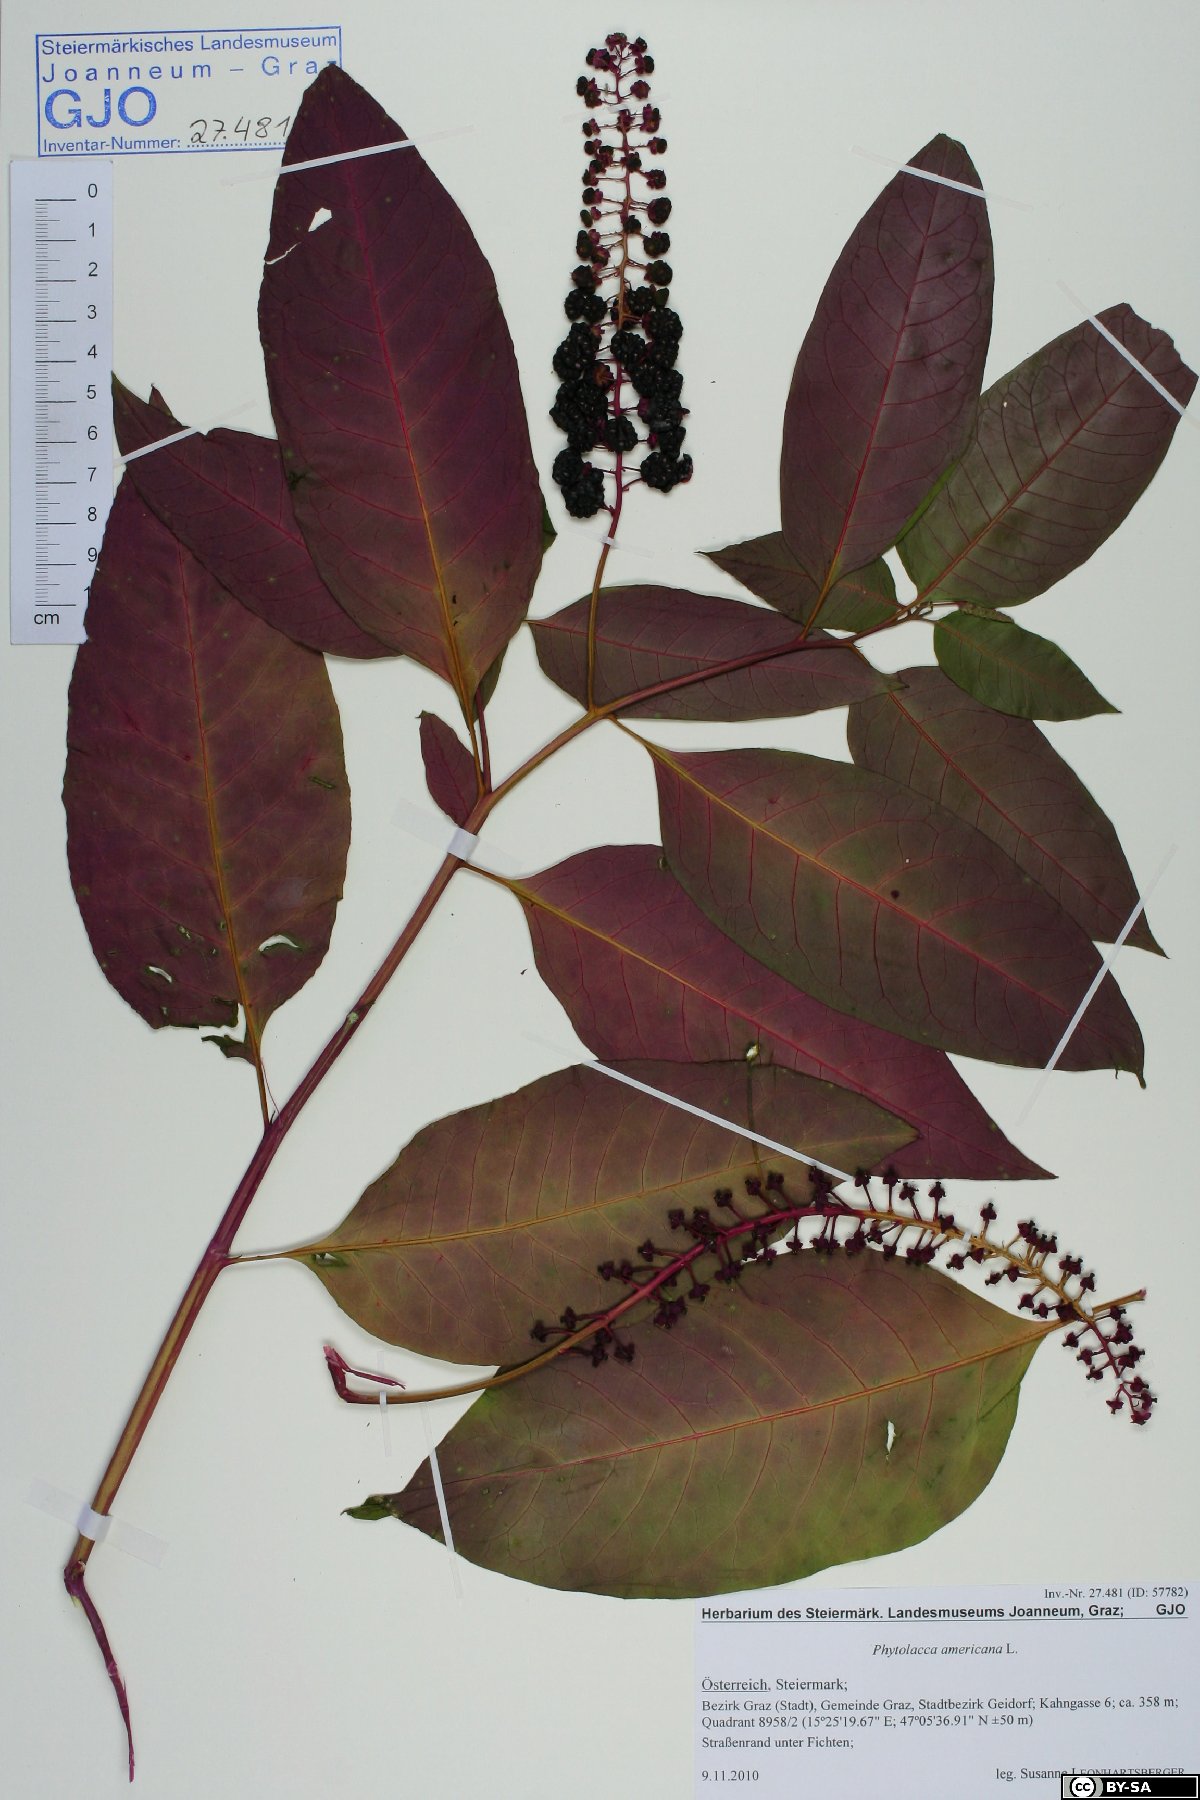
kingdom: Plantae
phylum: Tracheophyta
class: Magnoliopsida
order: Caryophyllales
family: Phytolaccaceae
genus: Phytolacca
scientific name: Phytolacca americana
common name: American pokeweed
